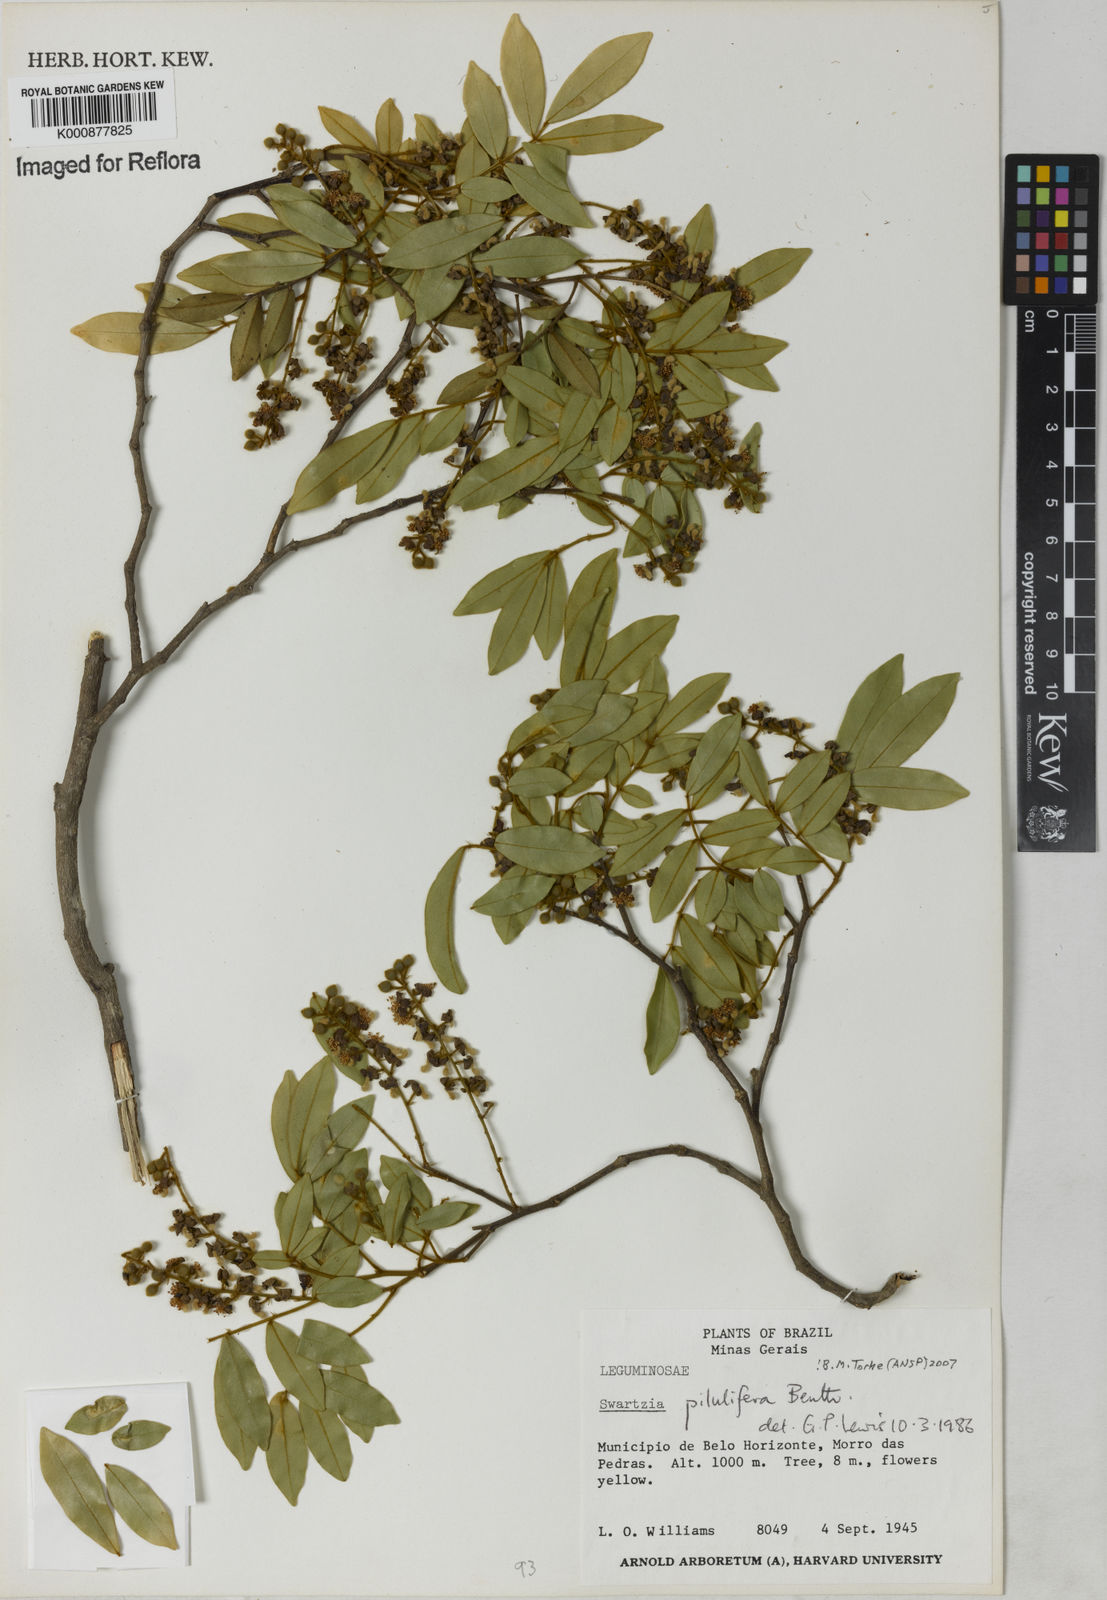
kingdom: Plantae
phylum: Tracheophyta
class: Magnoliopsida
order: Fabales
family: Fabaceae
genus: Swartzia
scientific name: Swartzia pilulifera
